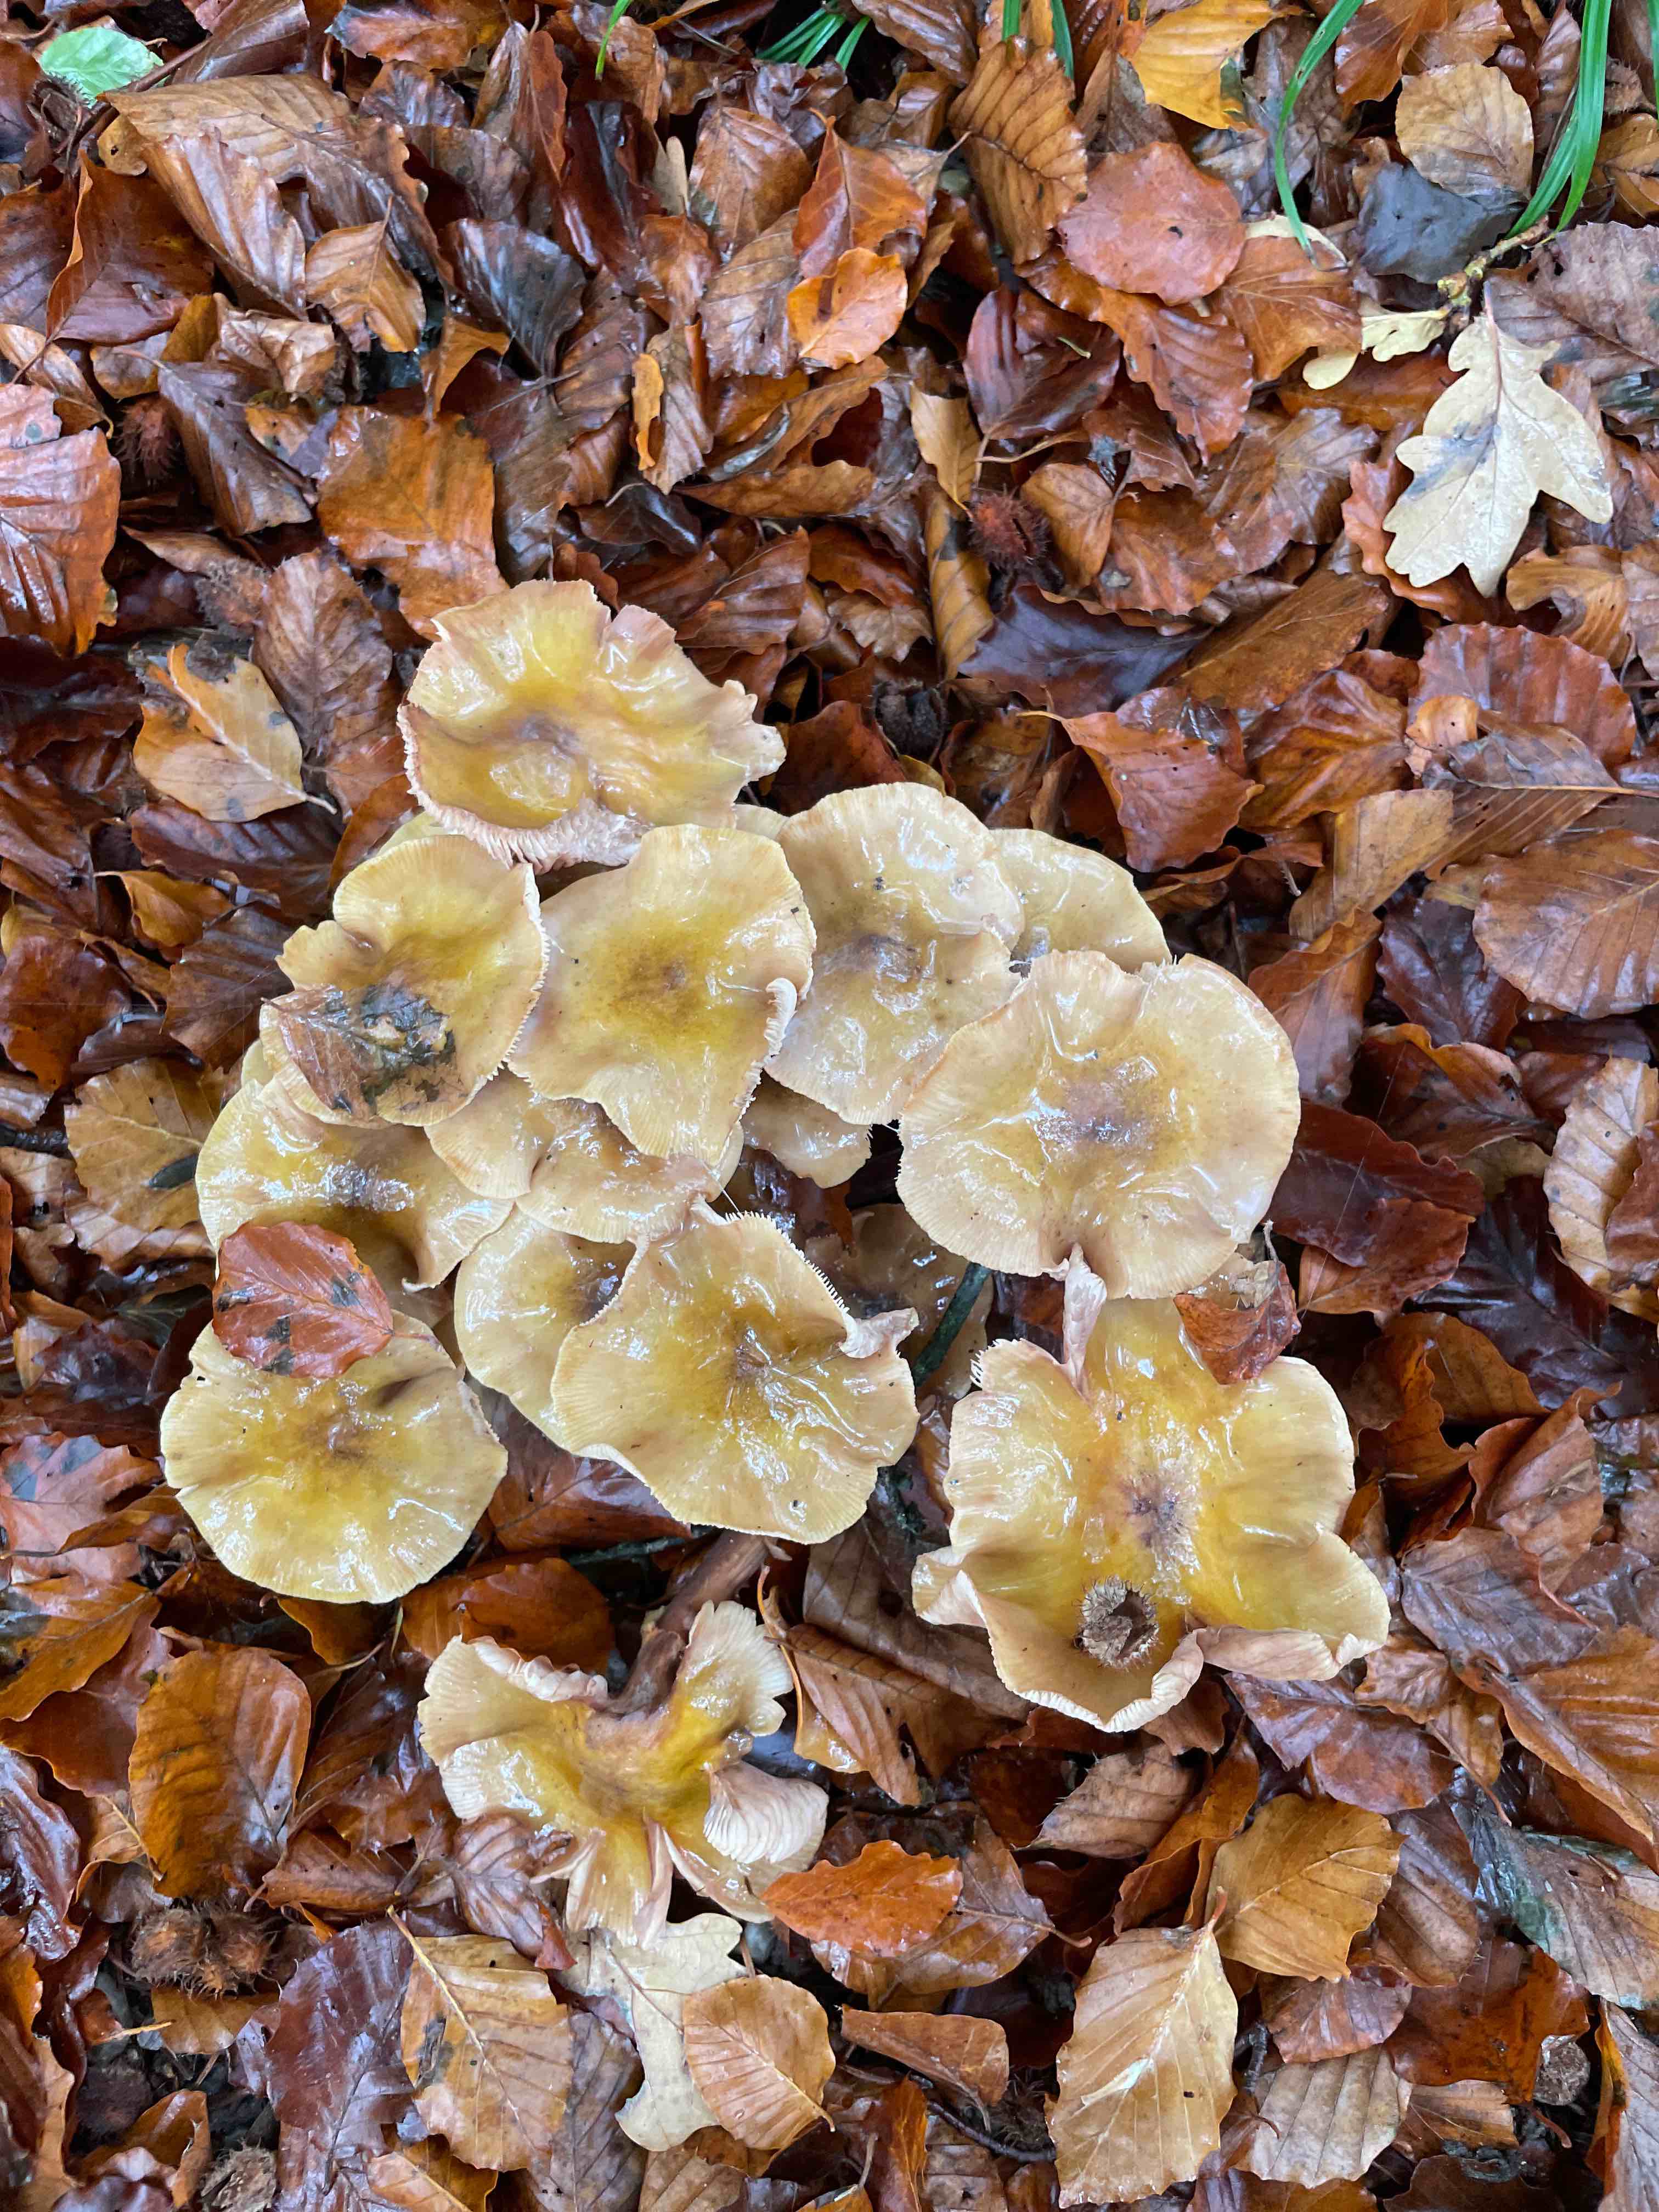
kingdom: Fungi
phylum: Basidiomycota
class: Agaricomycetes
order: Agaricales
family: Physalacriaceae
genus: Armillaria
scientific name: Armillaria mellea
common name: ægte honningsvamp
